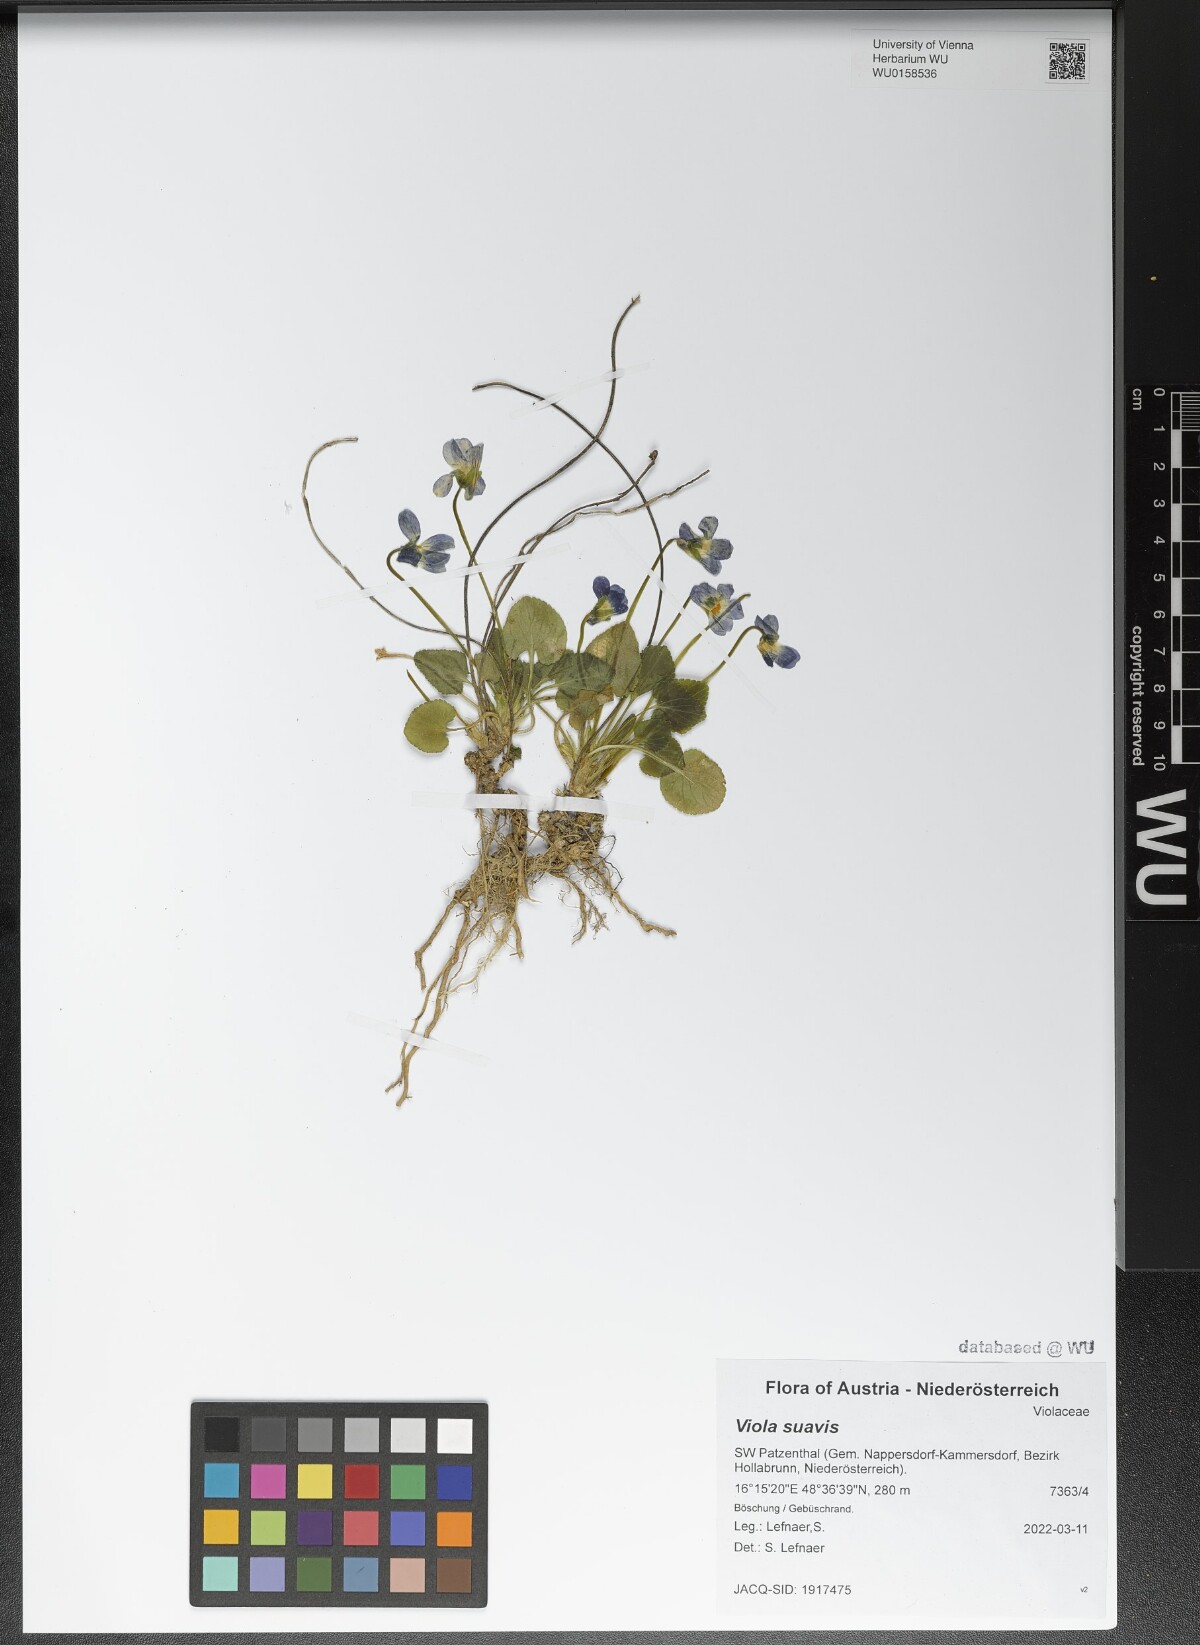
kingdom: Plantae
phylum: Tracheophyta
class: Magnoliopsida
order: Malpighiales
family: Violaceae
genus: Viola
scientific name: Viola suavis
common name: Russian violet
